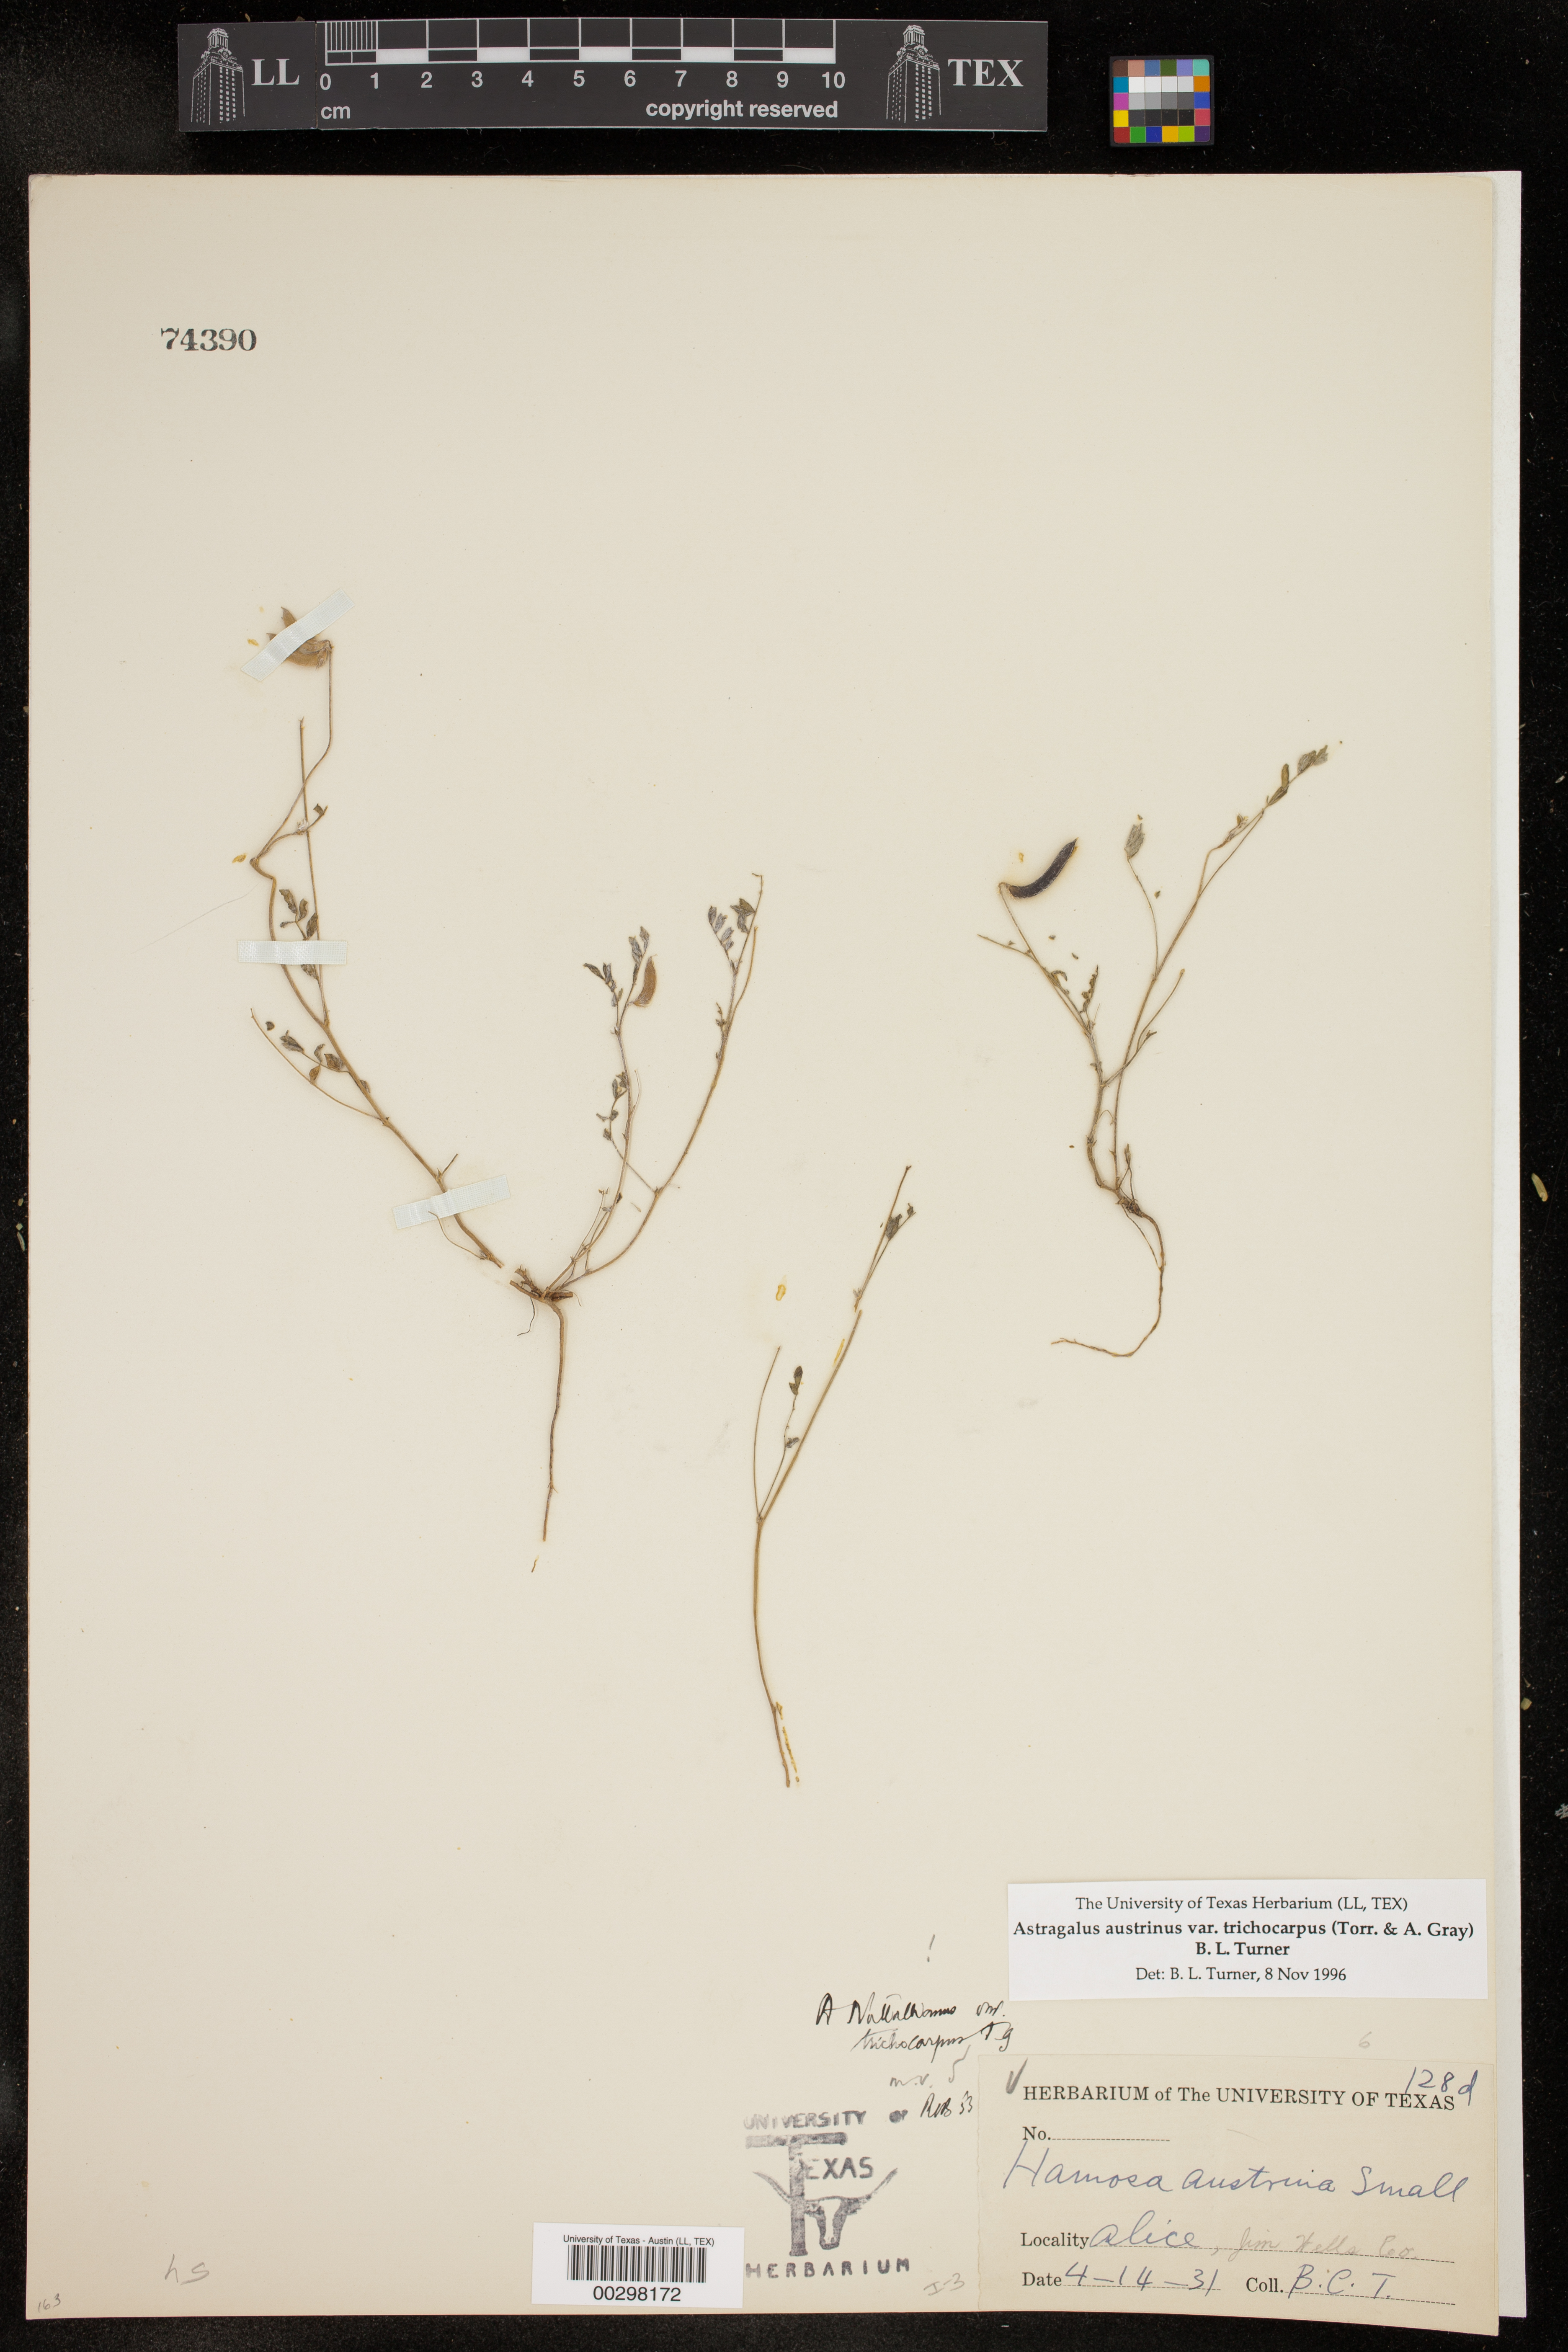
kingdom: Plantae
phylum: Tracheophyta
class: Magnoliopsida
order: Fabales
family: Fabaceae
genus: Astragalus
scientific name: Astragalus nuttallianus
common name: Smallflowered milkvetch
